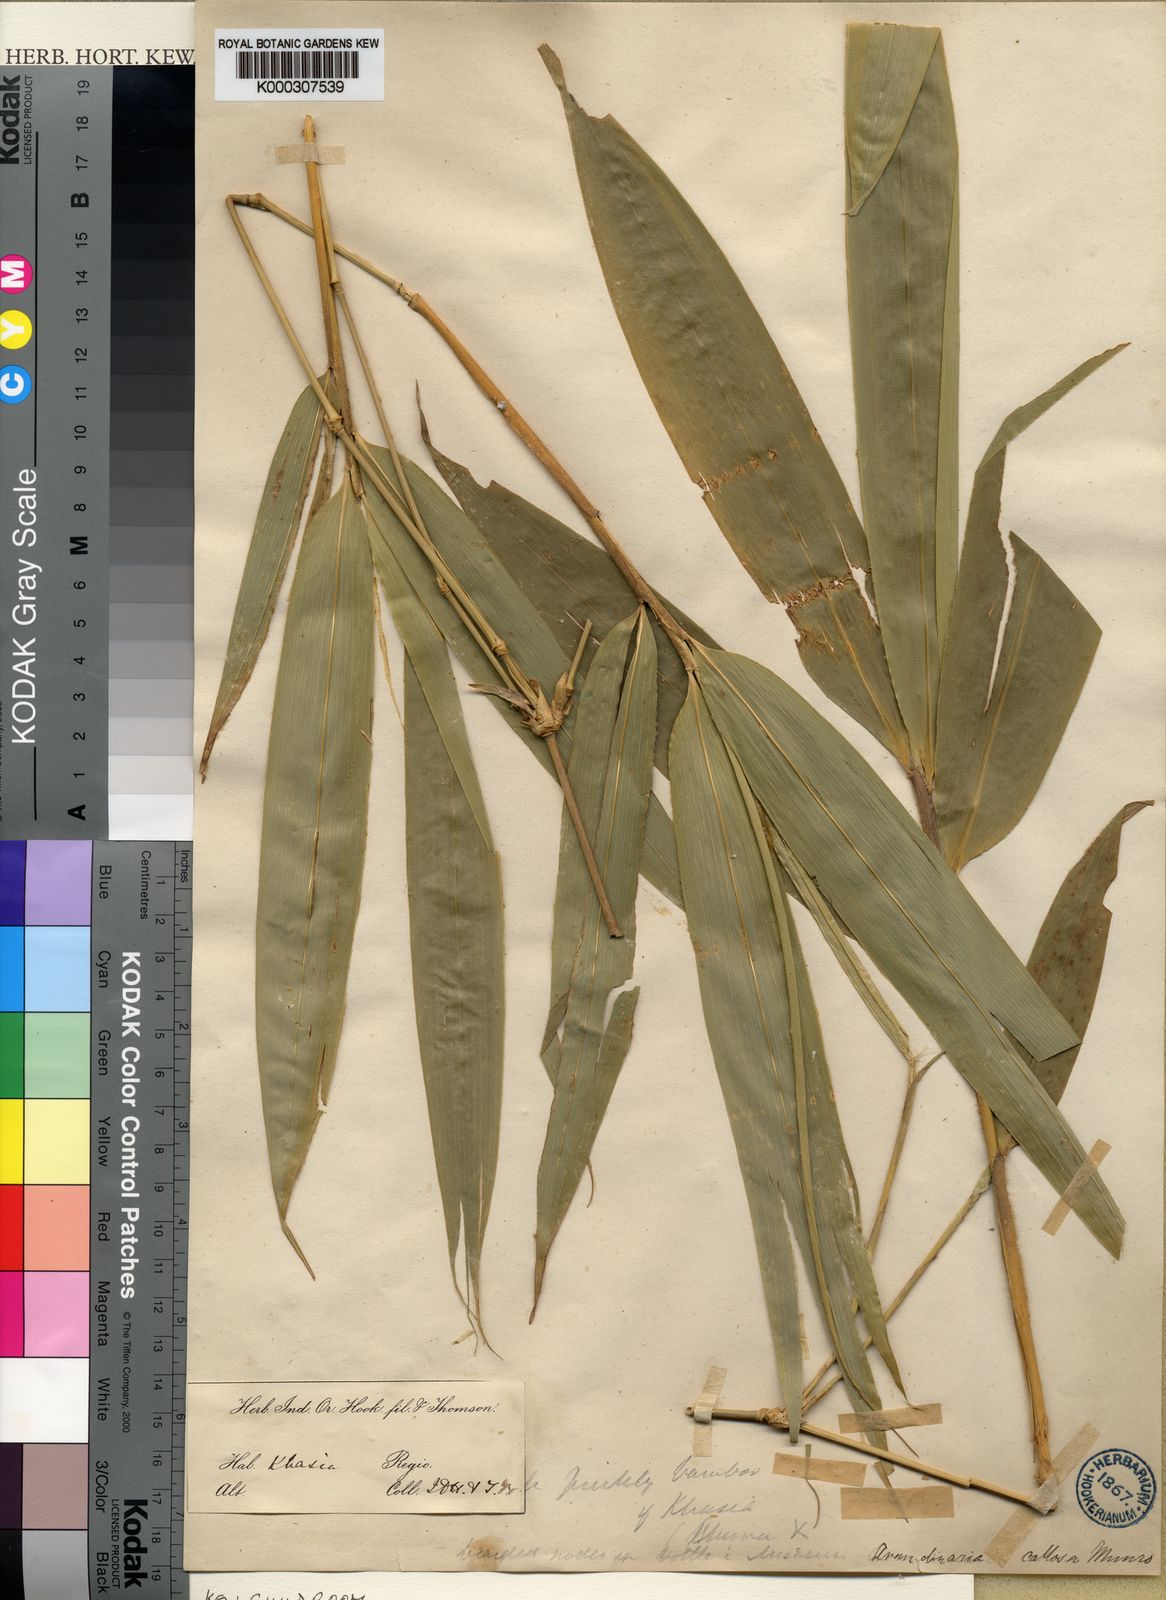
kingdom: Plantae
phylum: Tracheophyta
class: Liliopsida
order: Poales
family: Poaceae
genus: Chimonobambusa
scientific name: Chimonobambusa callosa
